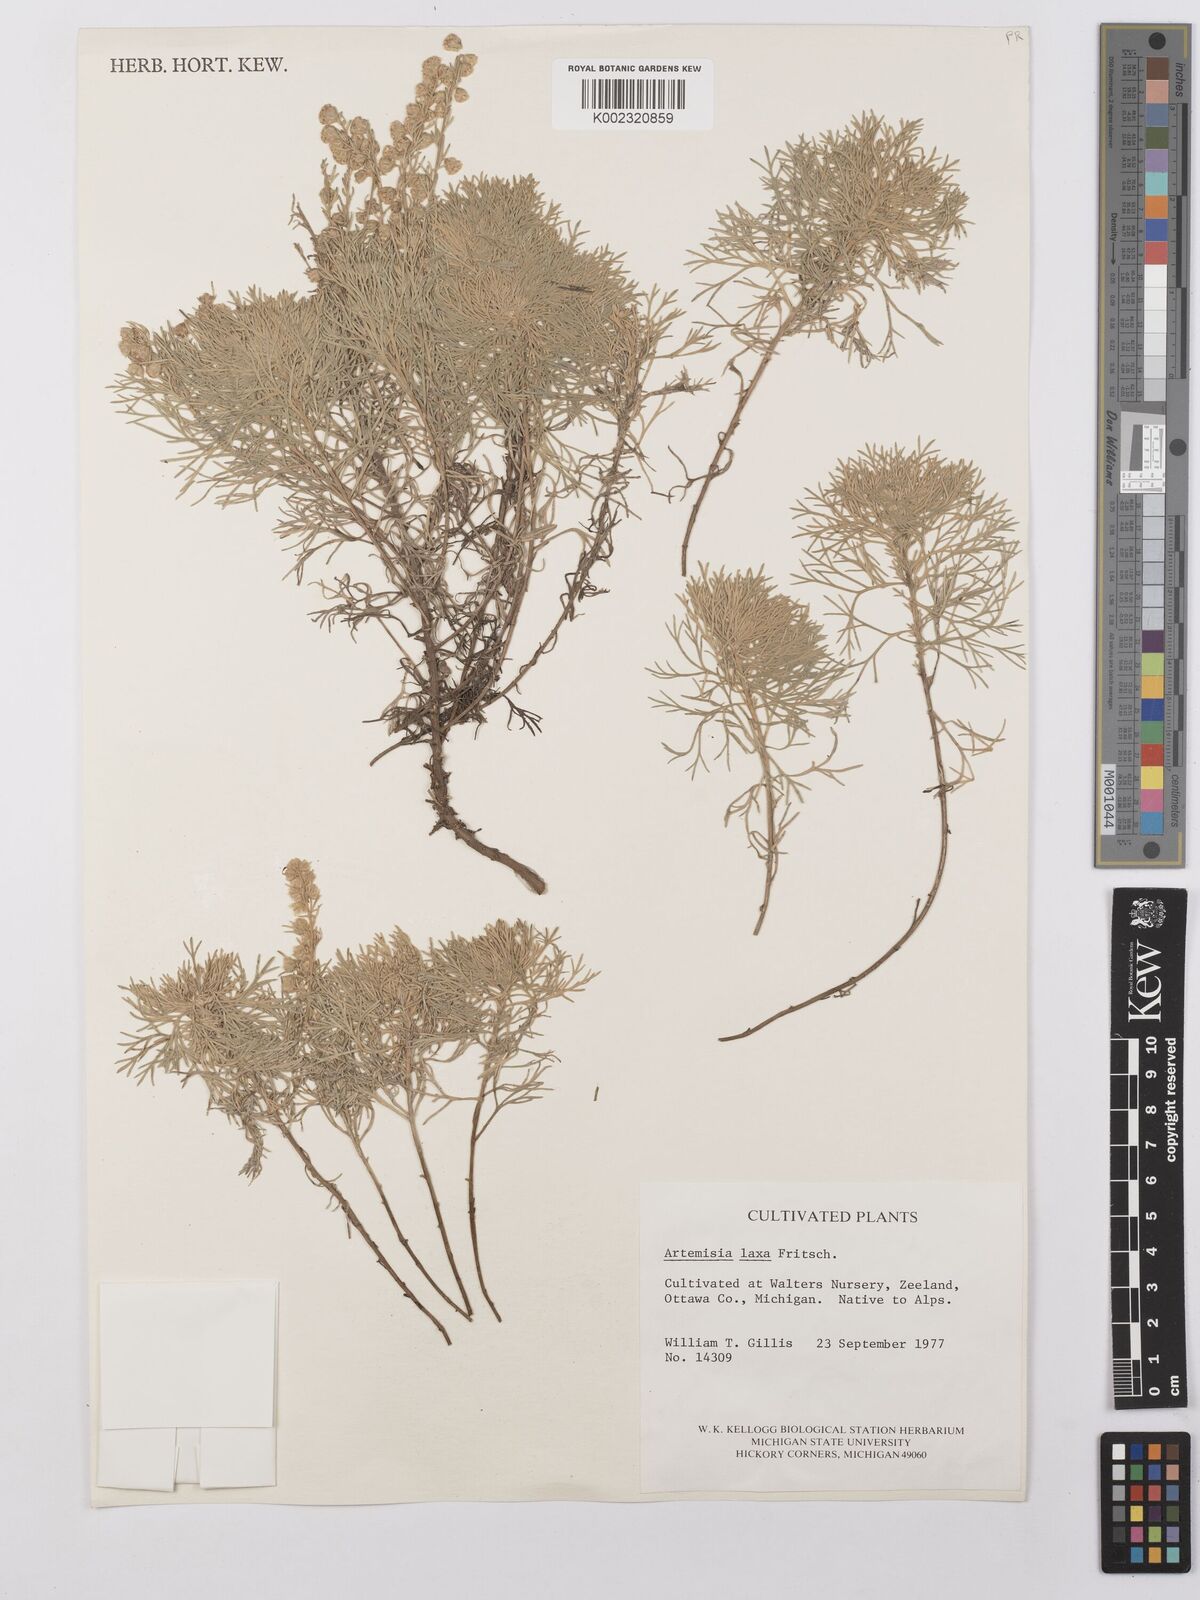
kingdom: Plantae
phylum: Tracheophyta
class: Magnoliopsida
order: Asterales
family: Asteraceae
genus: Artemisia
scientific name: Artemisia mutellina
